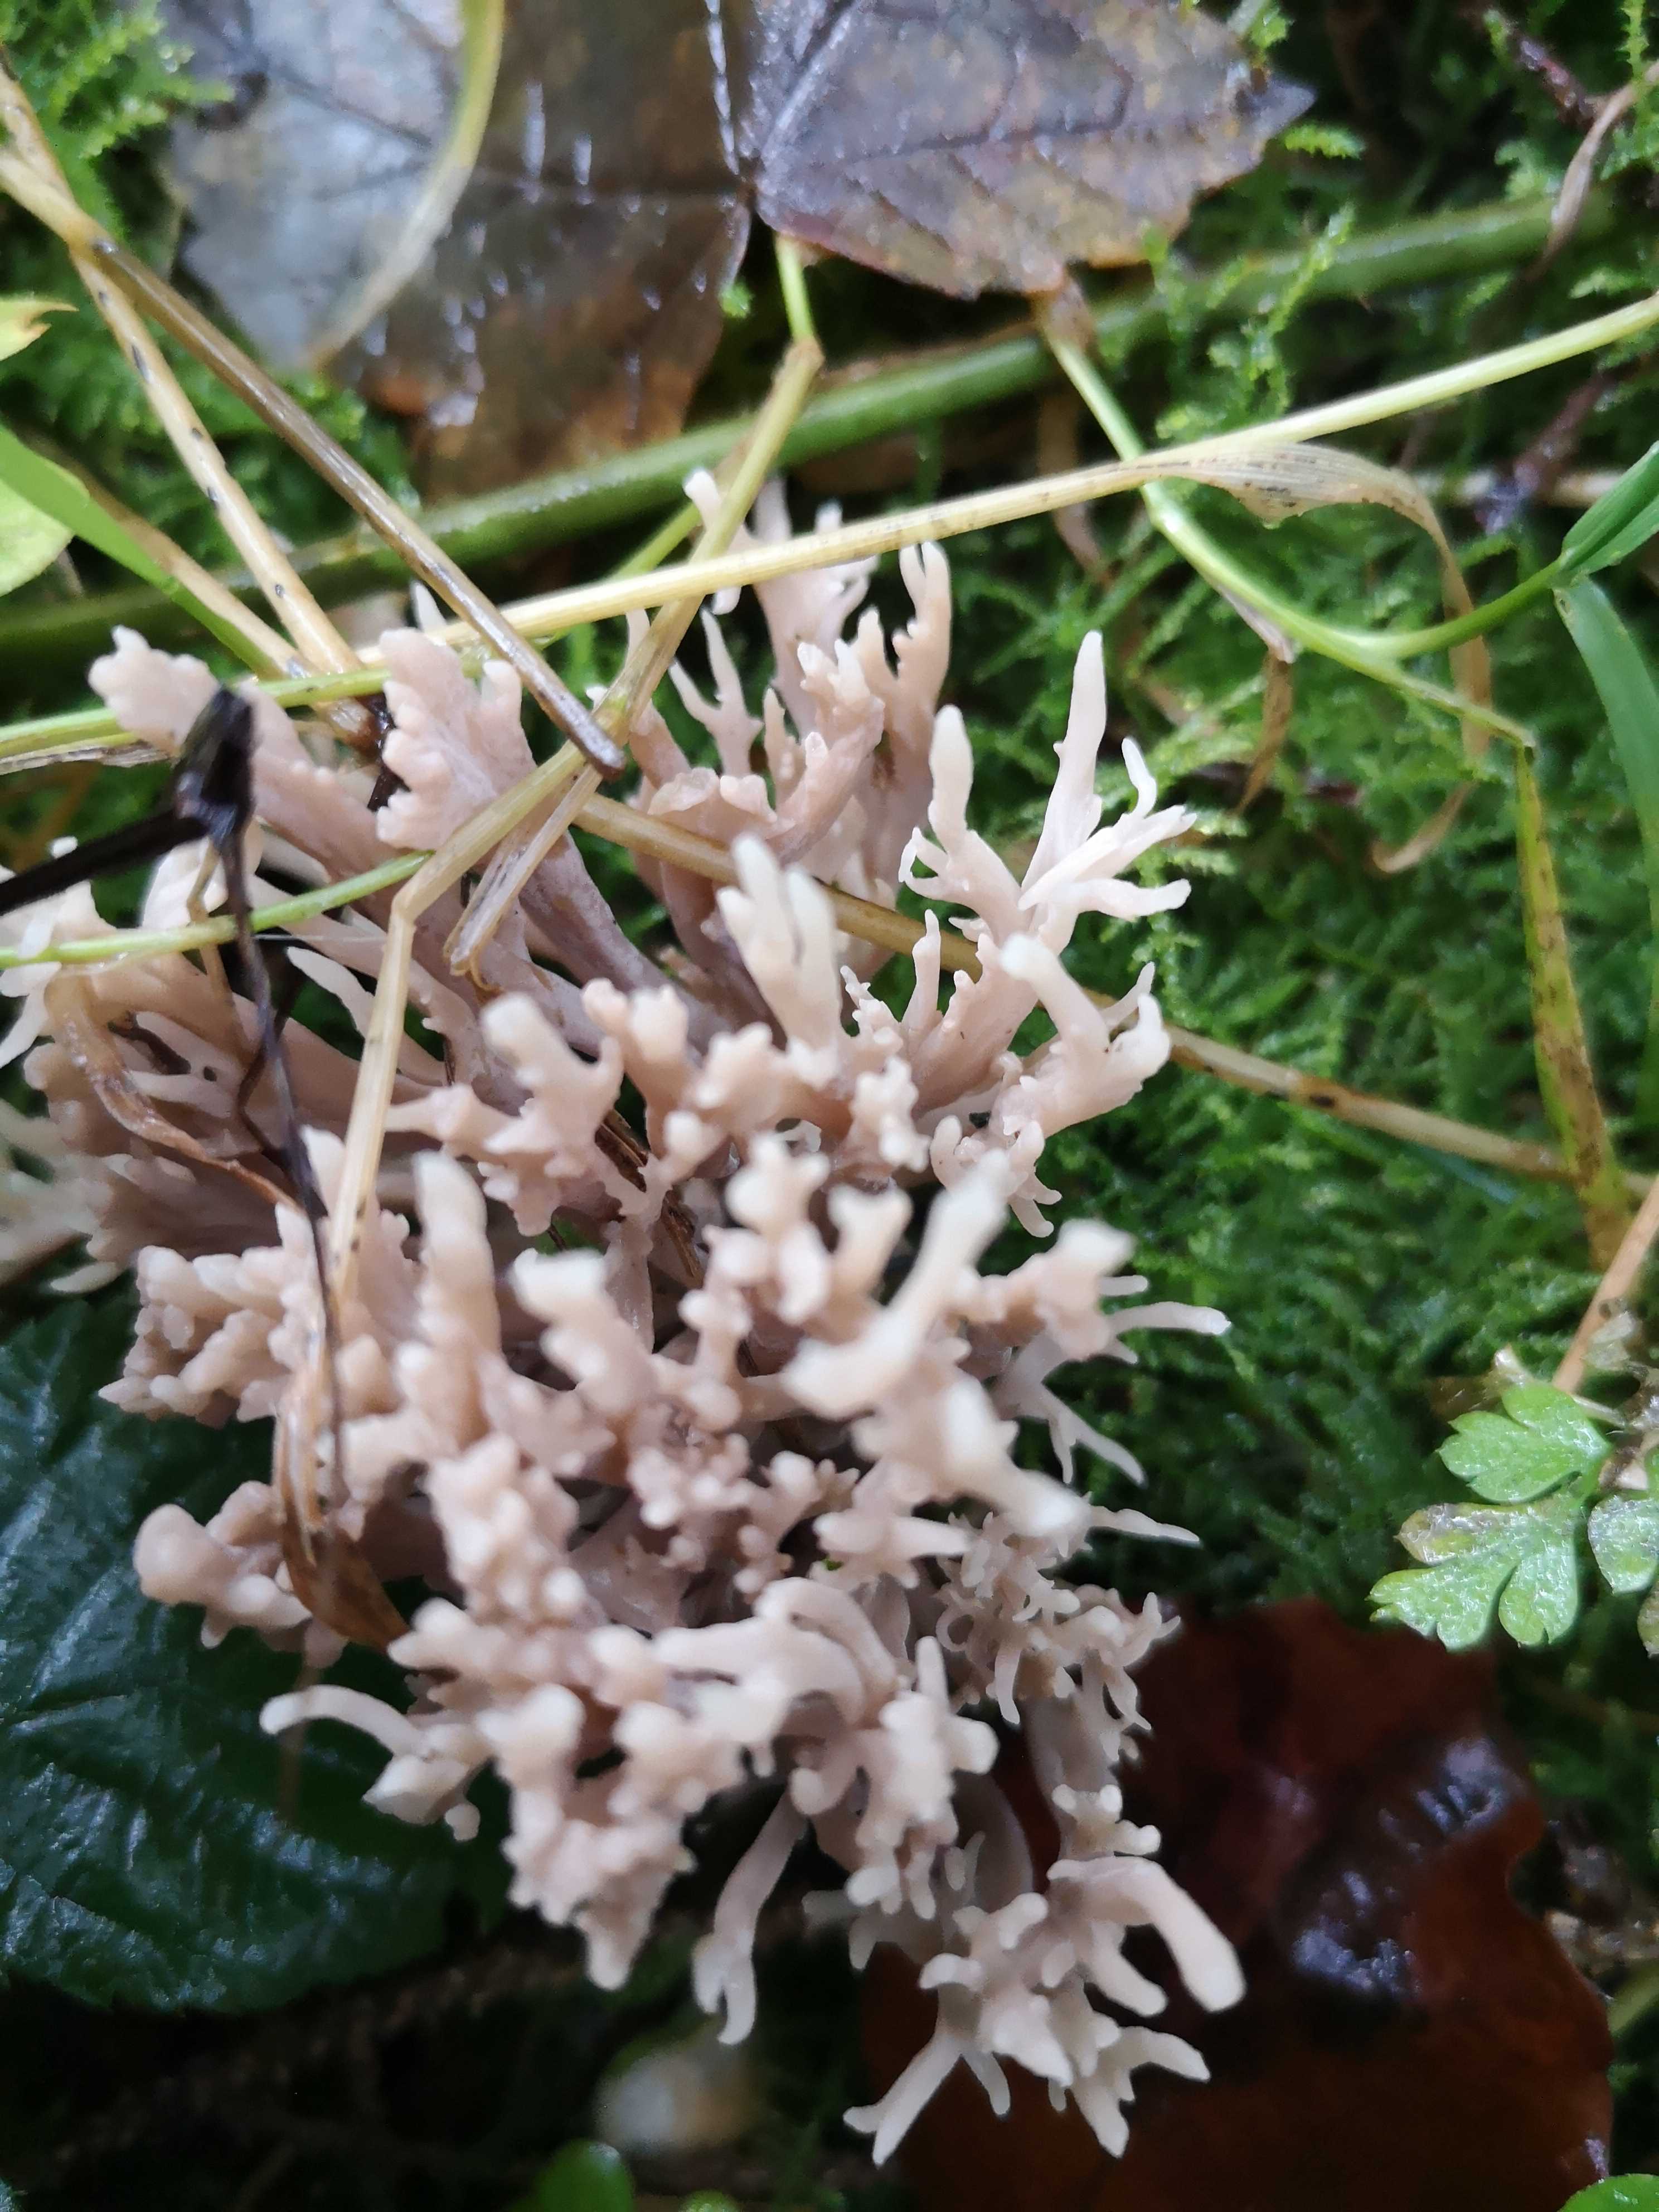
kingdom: Fungi
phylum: Basidiomycota
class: Agaricomycetes
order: Cantharellales
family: Hydnaceae
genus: Clavulina
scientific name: Clavulina
